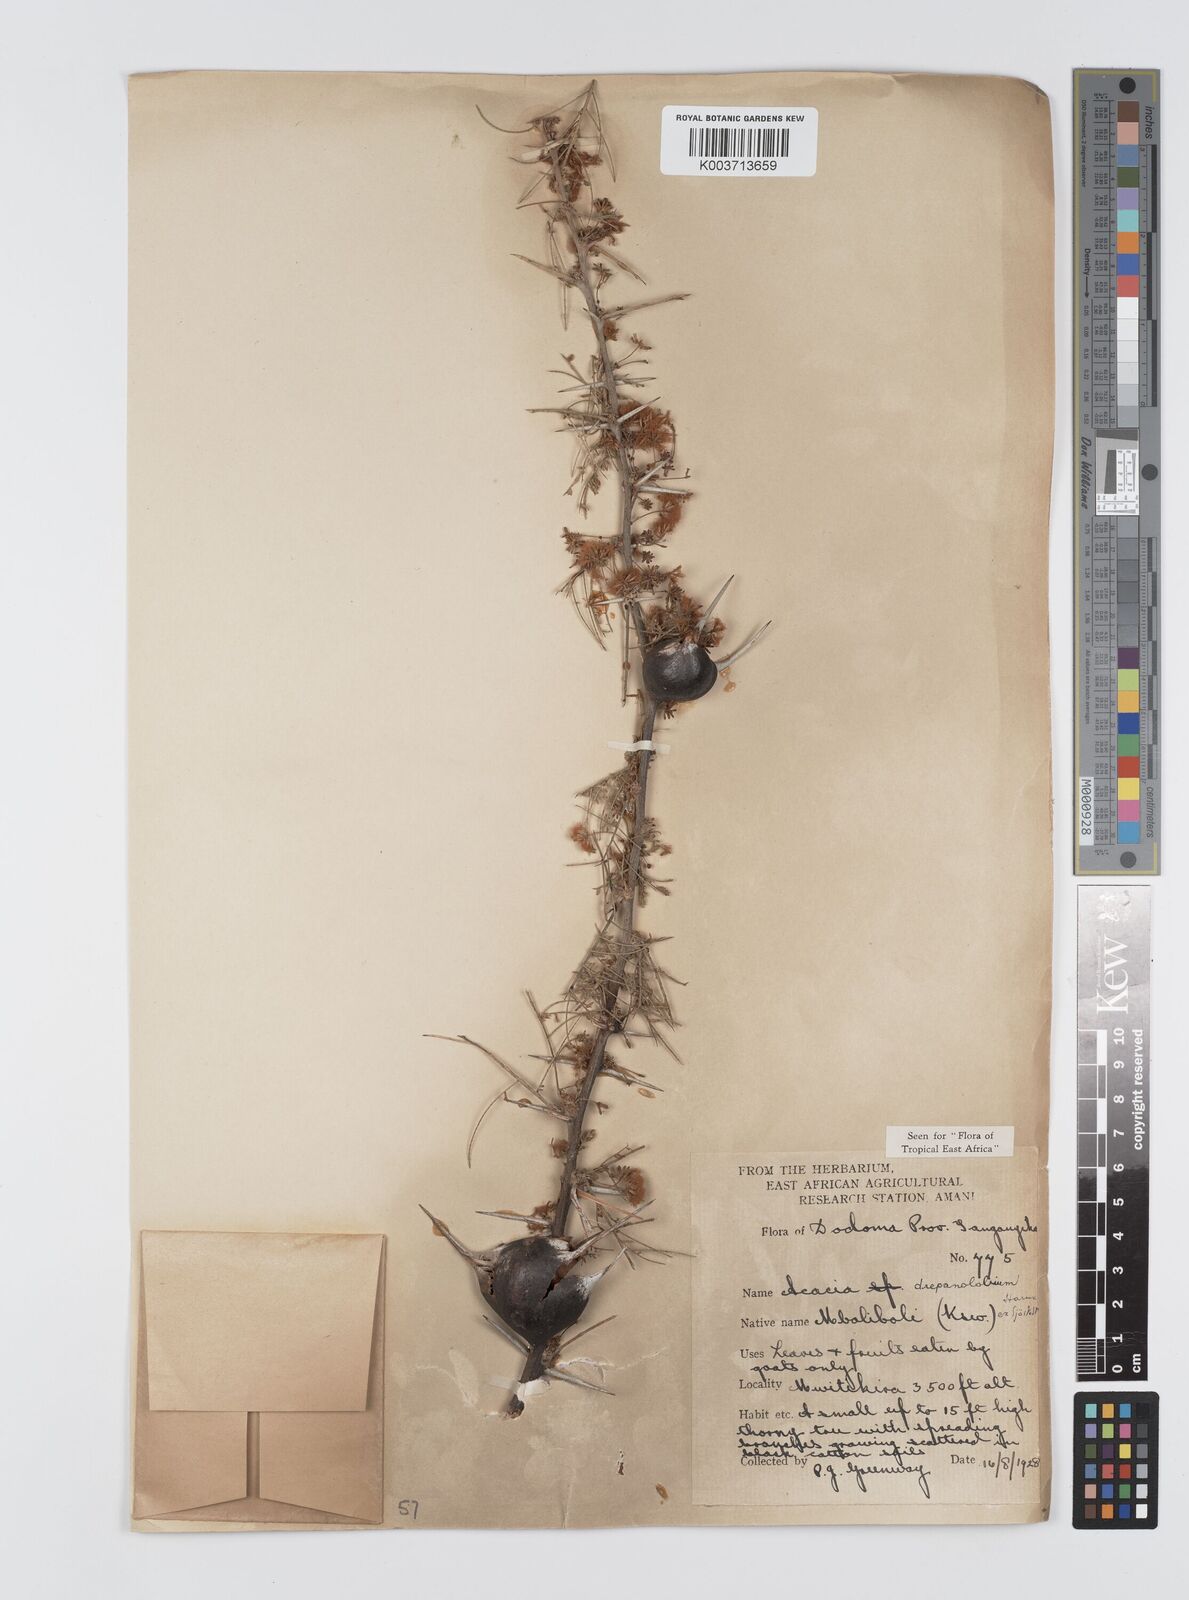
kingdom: Plantae
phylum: Tracheophyta
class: Magnoliopsida
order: Fabales
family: Fabaceae
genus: Vachellia
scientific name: Vachellia drepanolobium
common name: Whistling thorn
